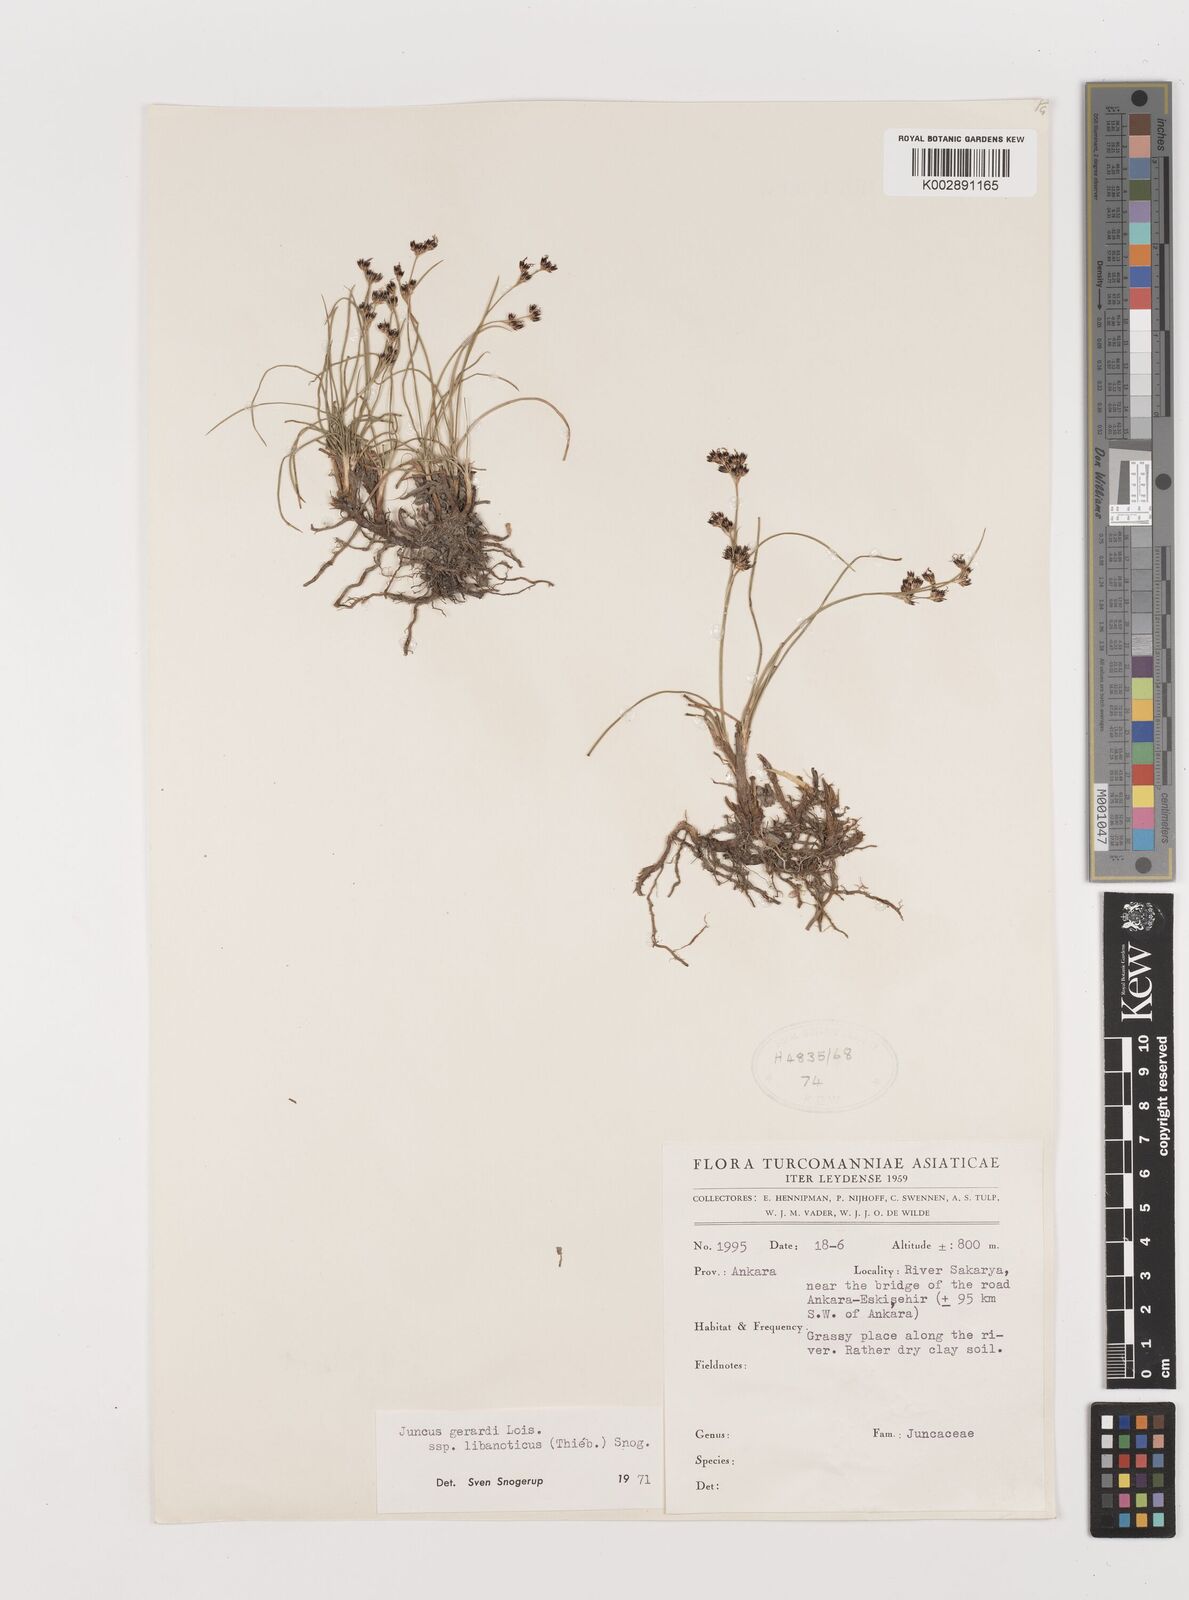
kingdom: Plantae
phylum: Tracheophyta
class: Liliopsida
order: Poales
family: Juncaceae
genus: Juncus
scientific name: Juncus persicus
